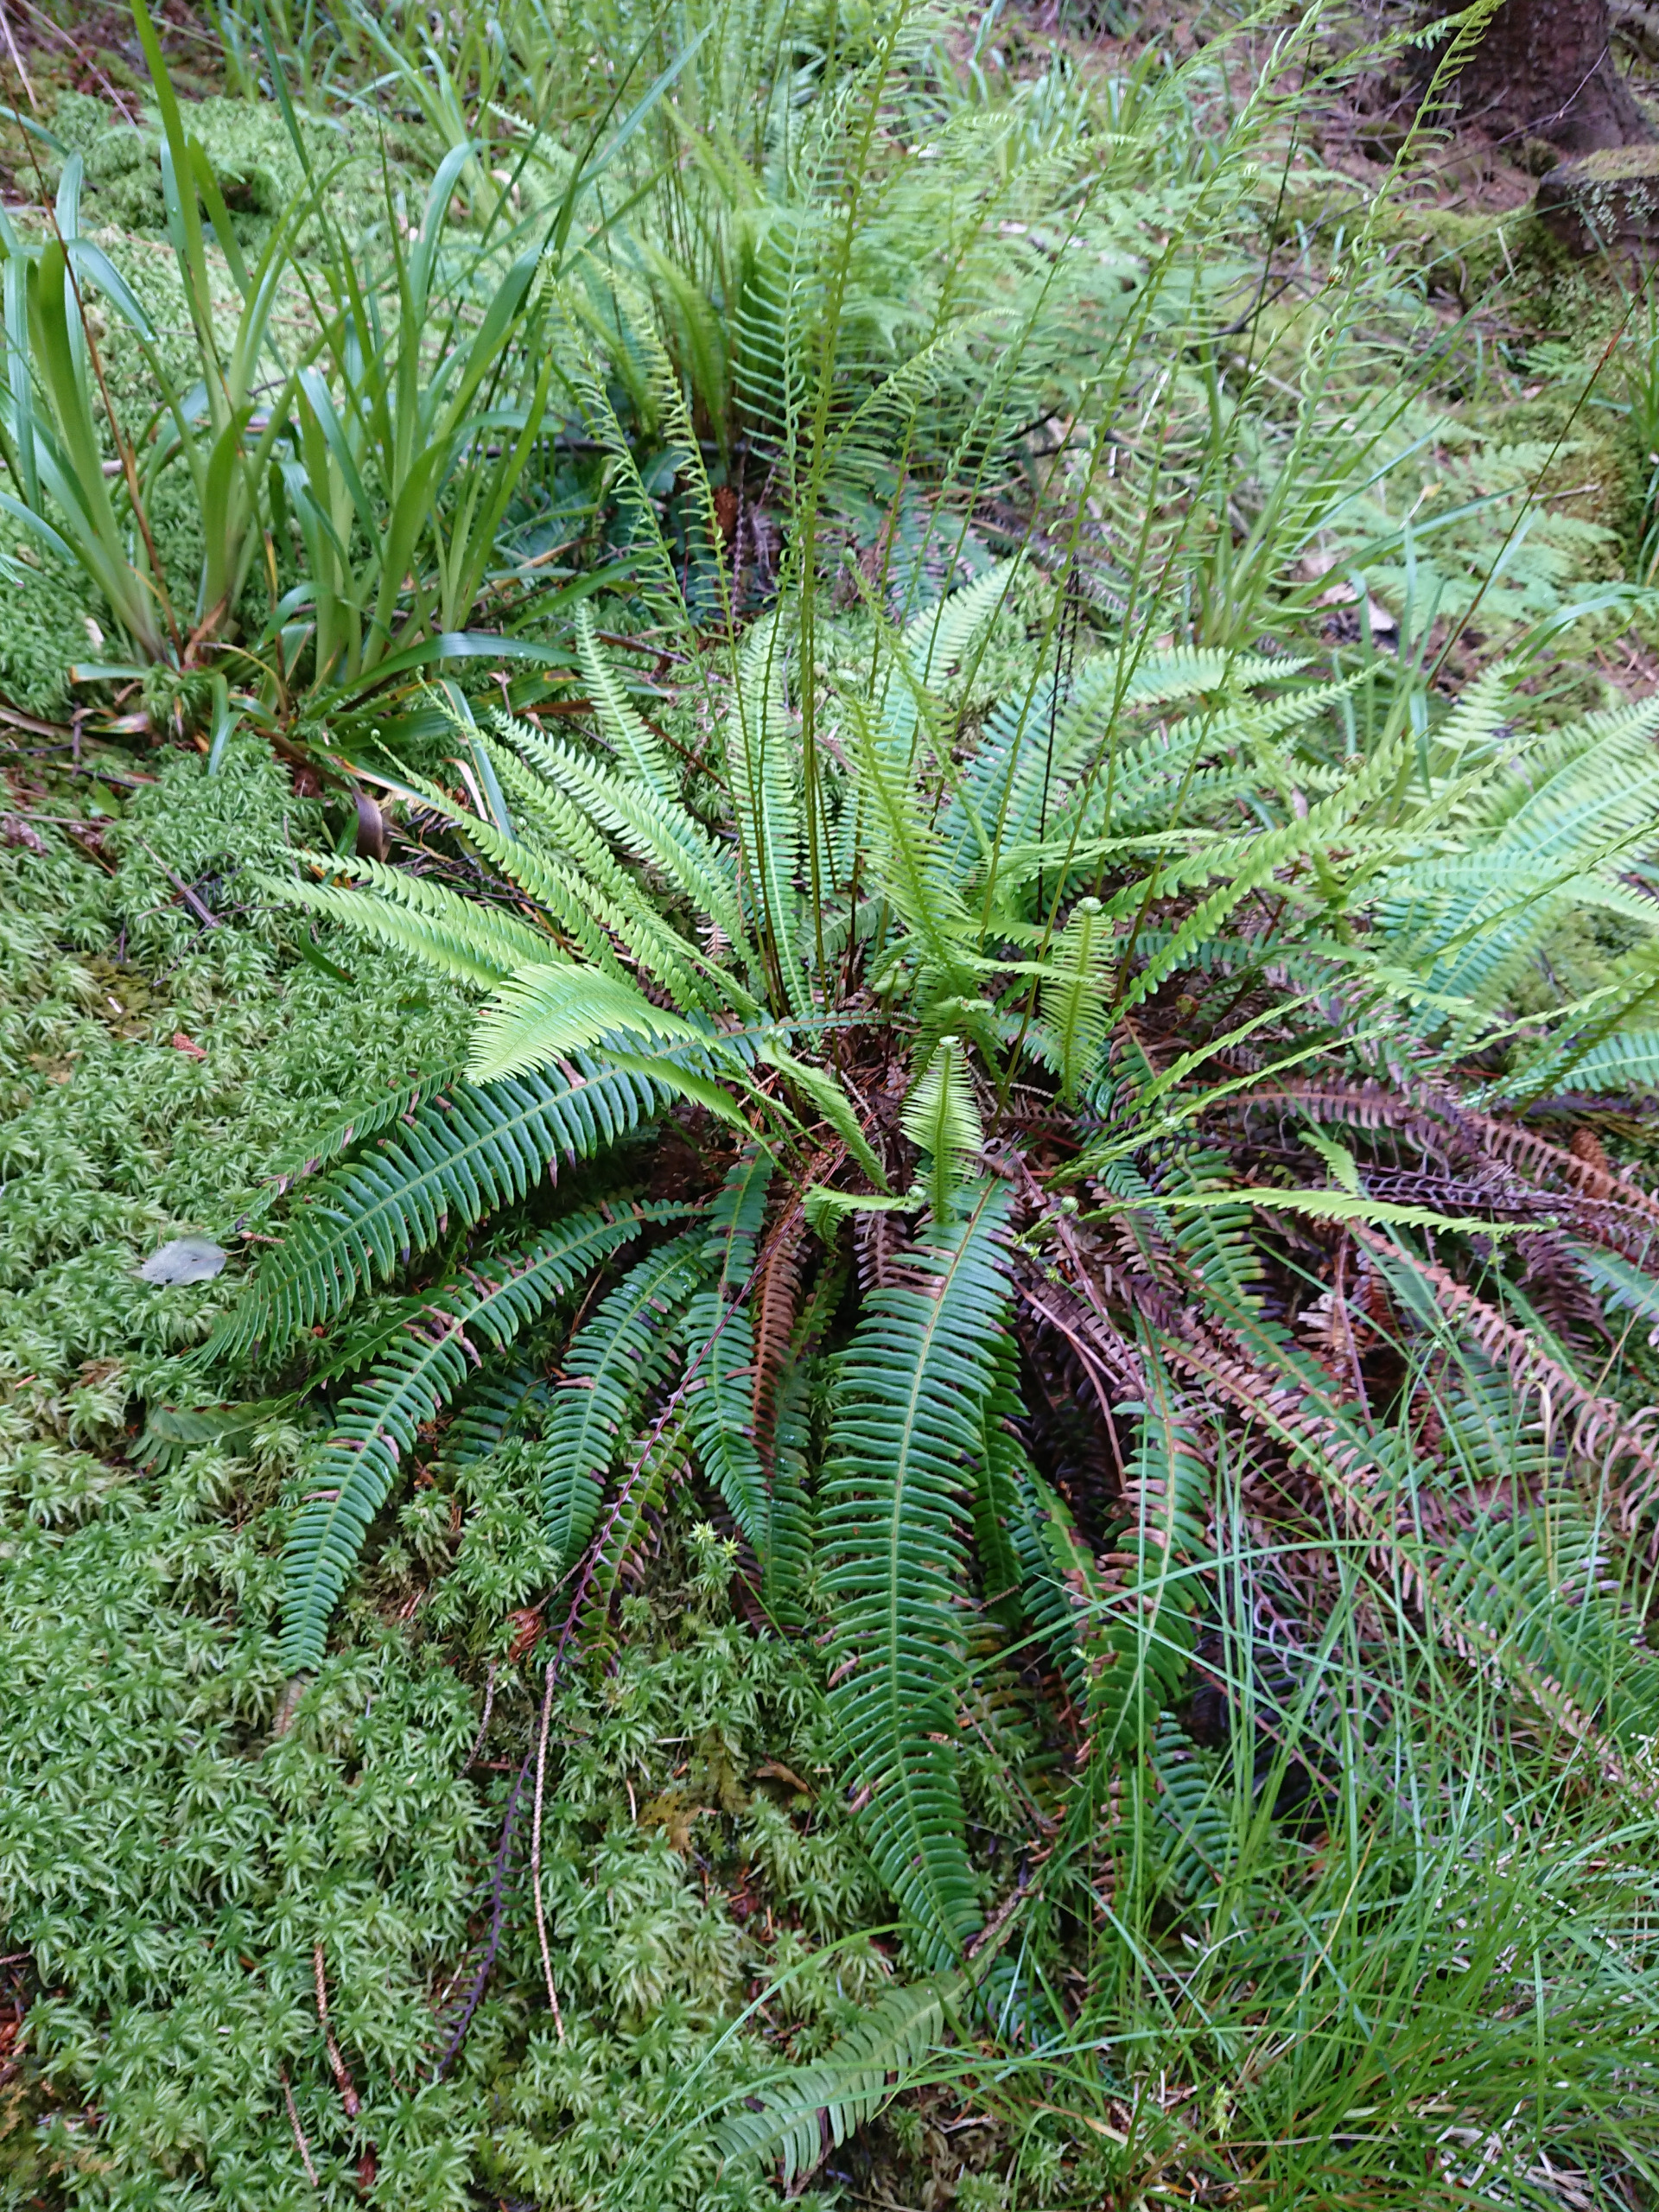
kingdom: Plantae
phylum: Tracheophyta
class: Polypodiopsida
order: Polypodiales
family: Blechnaceae
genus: Struthiopteris
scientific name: Struthiopteris spicant
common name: Kambregne
